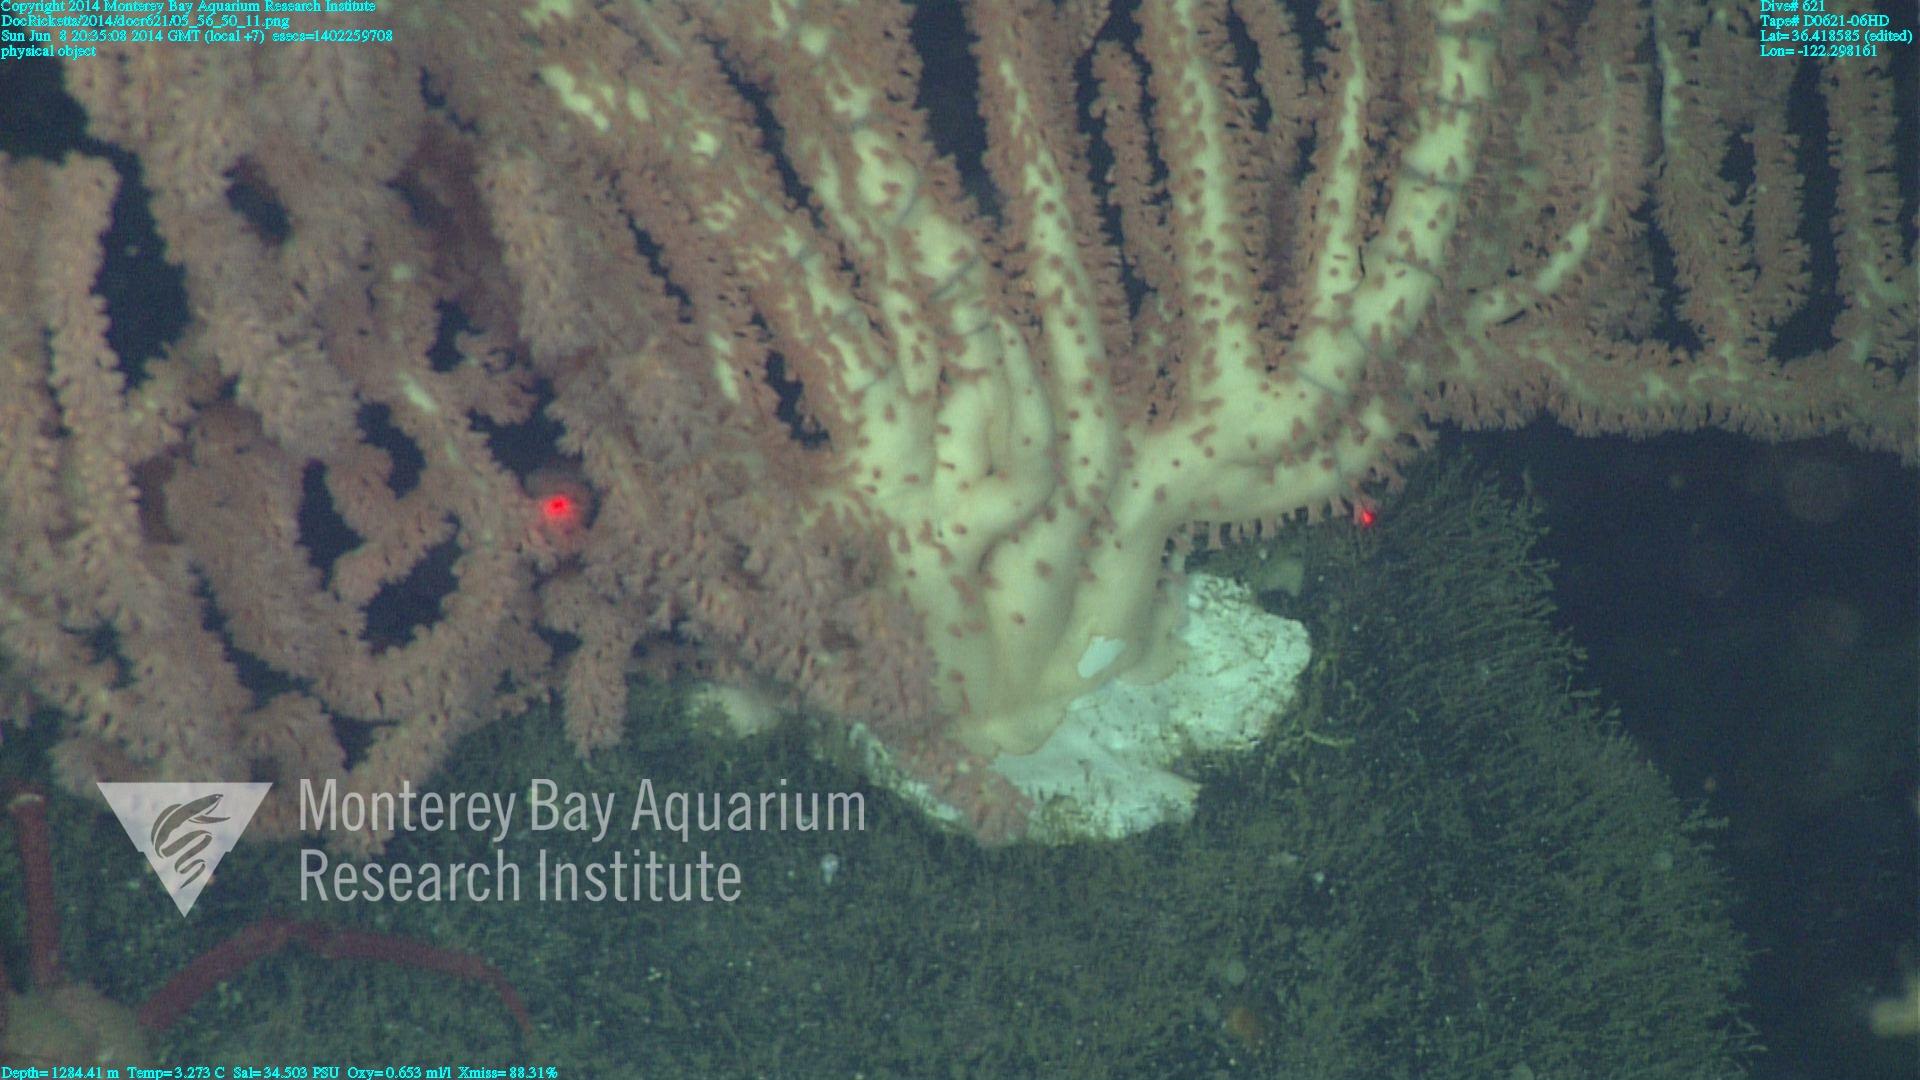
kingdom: Animalia
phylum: Cnidaria
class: Anthozoa
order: Scleralcyonacea
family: Keratoisididae
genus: Keratoisis
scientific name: Keratoisis
